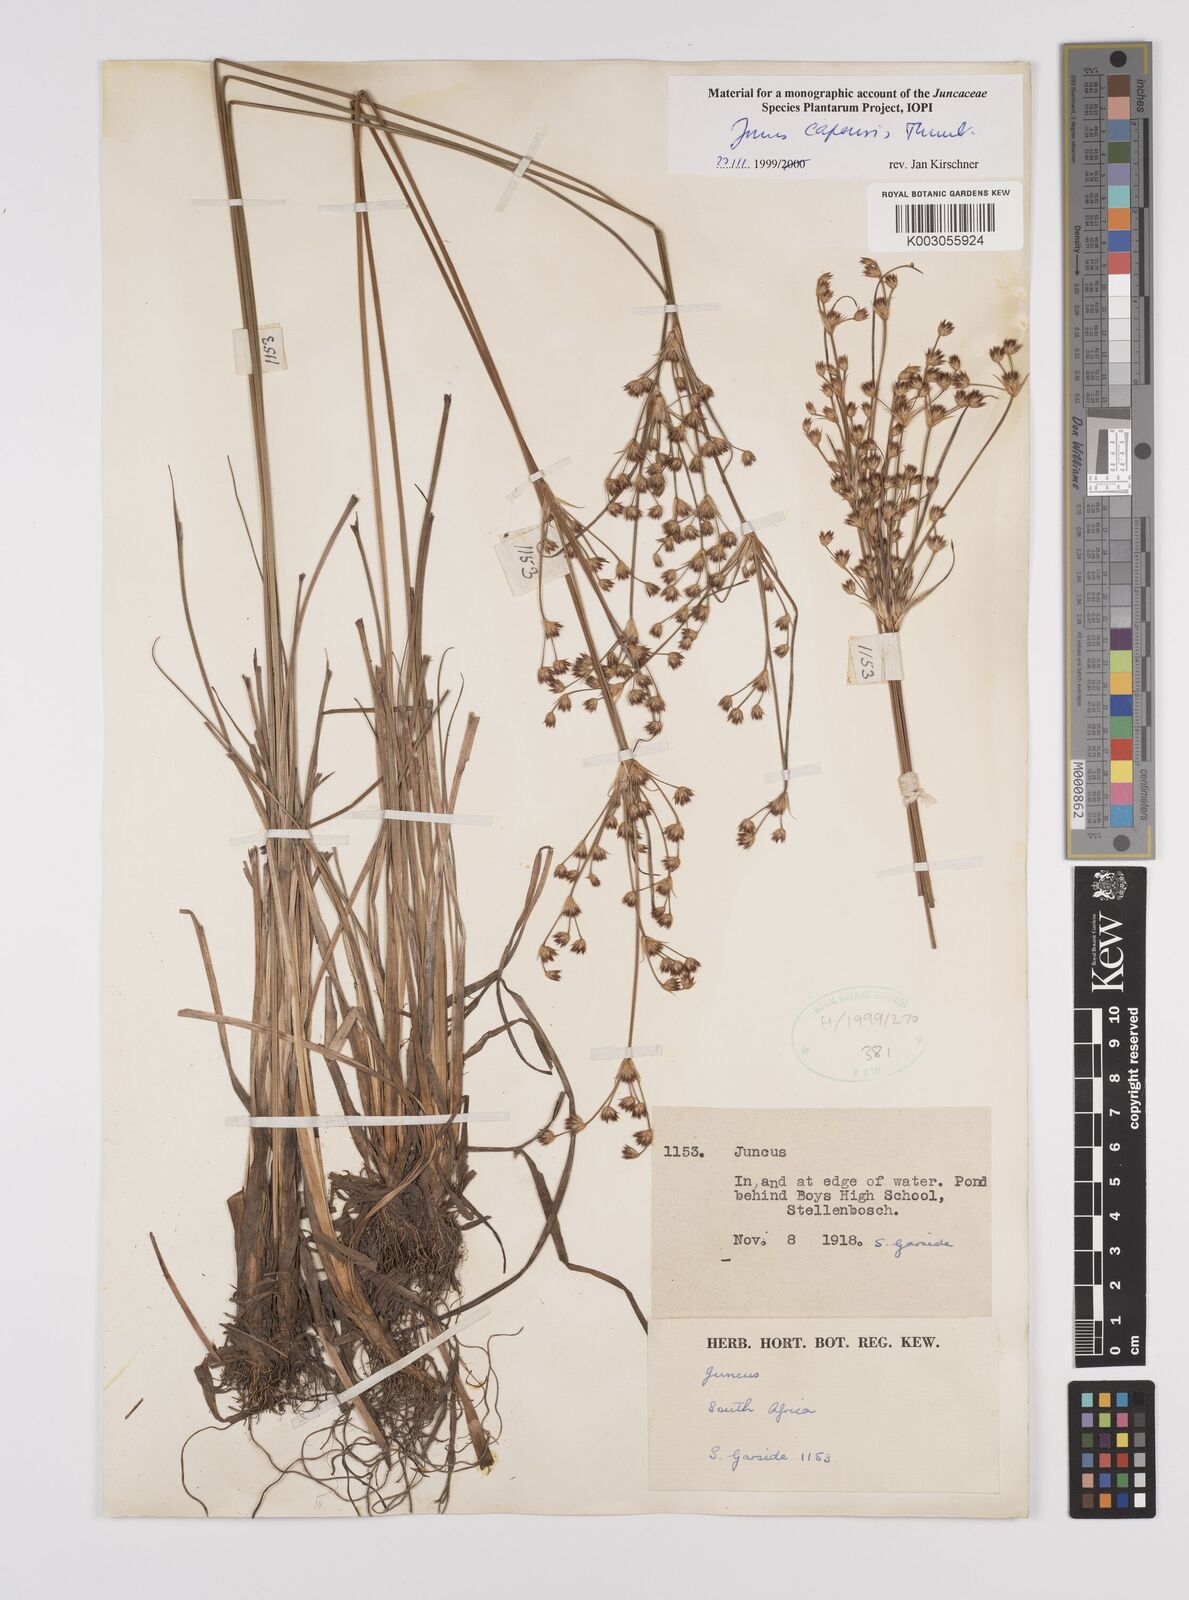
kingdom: Plantae
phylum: Tracheophyta
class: Liliopsida
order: Poales
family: Juncaceae
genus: Juncus
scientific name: Juncus capensis
